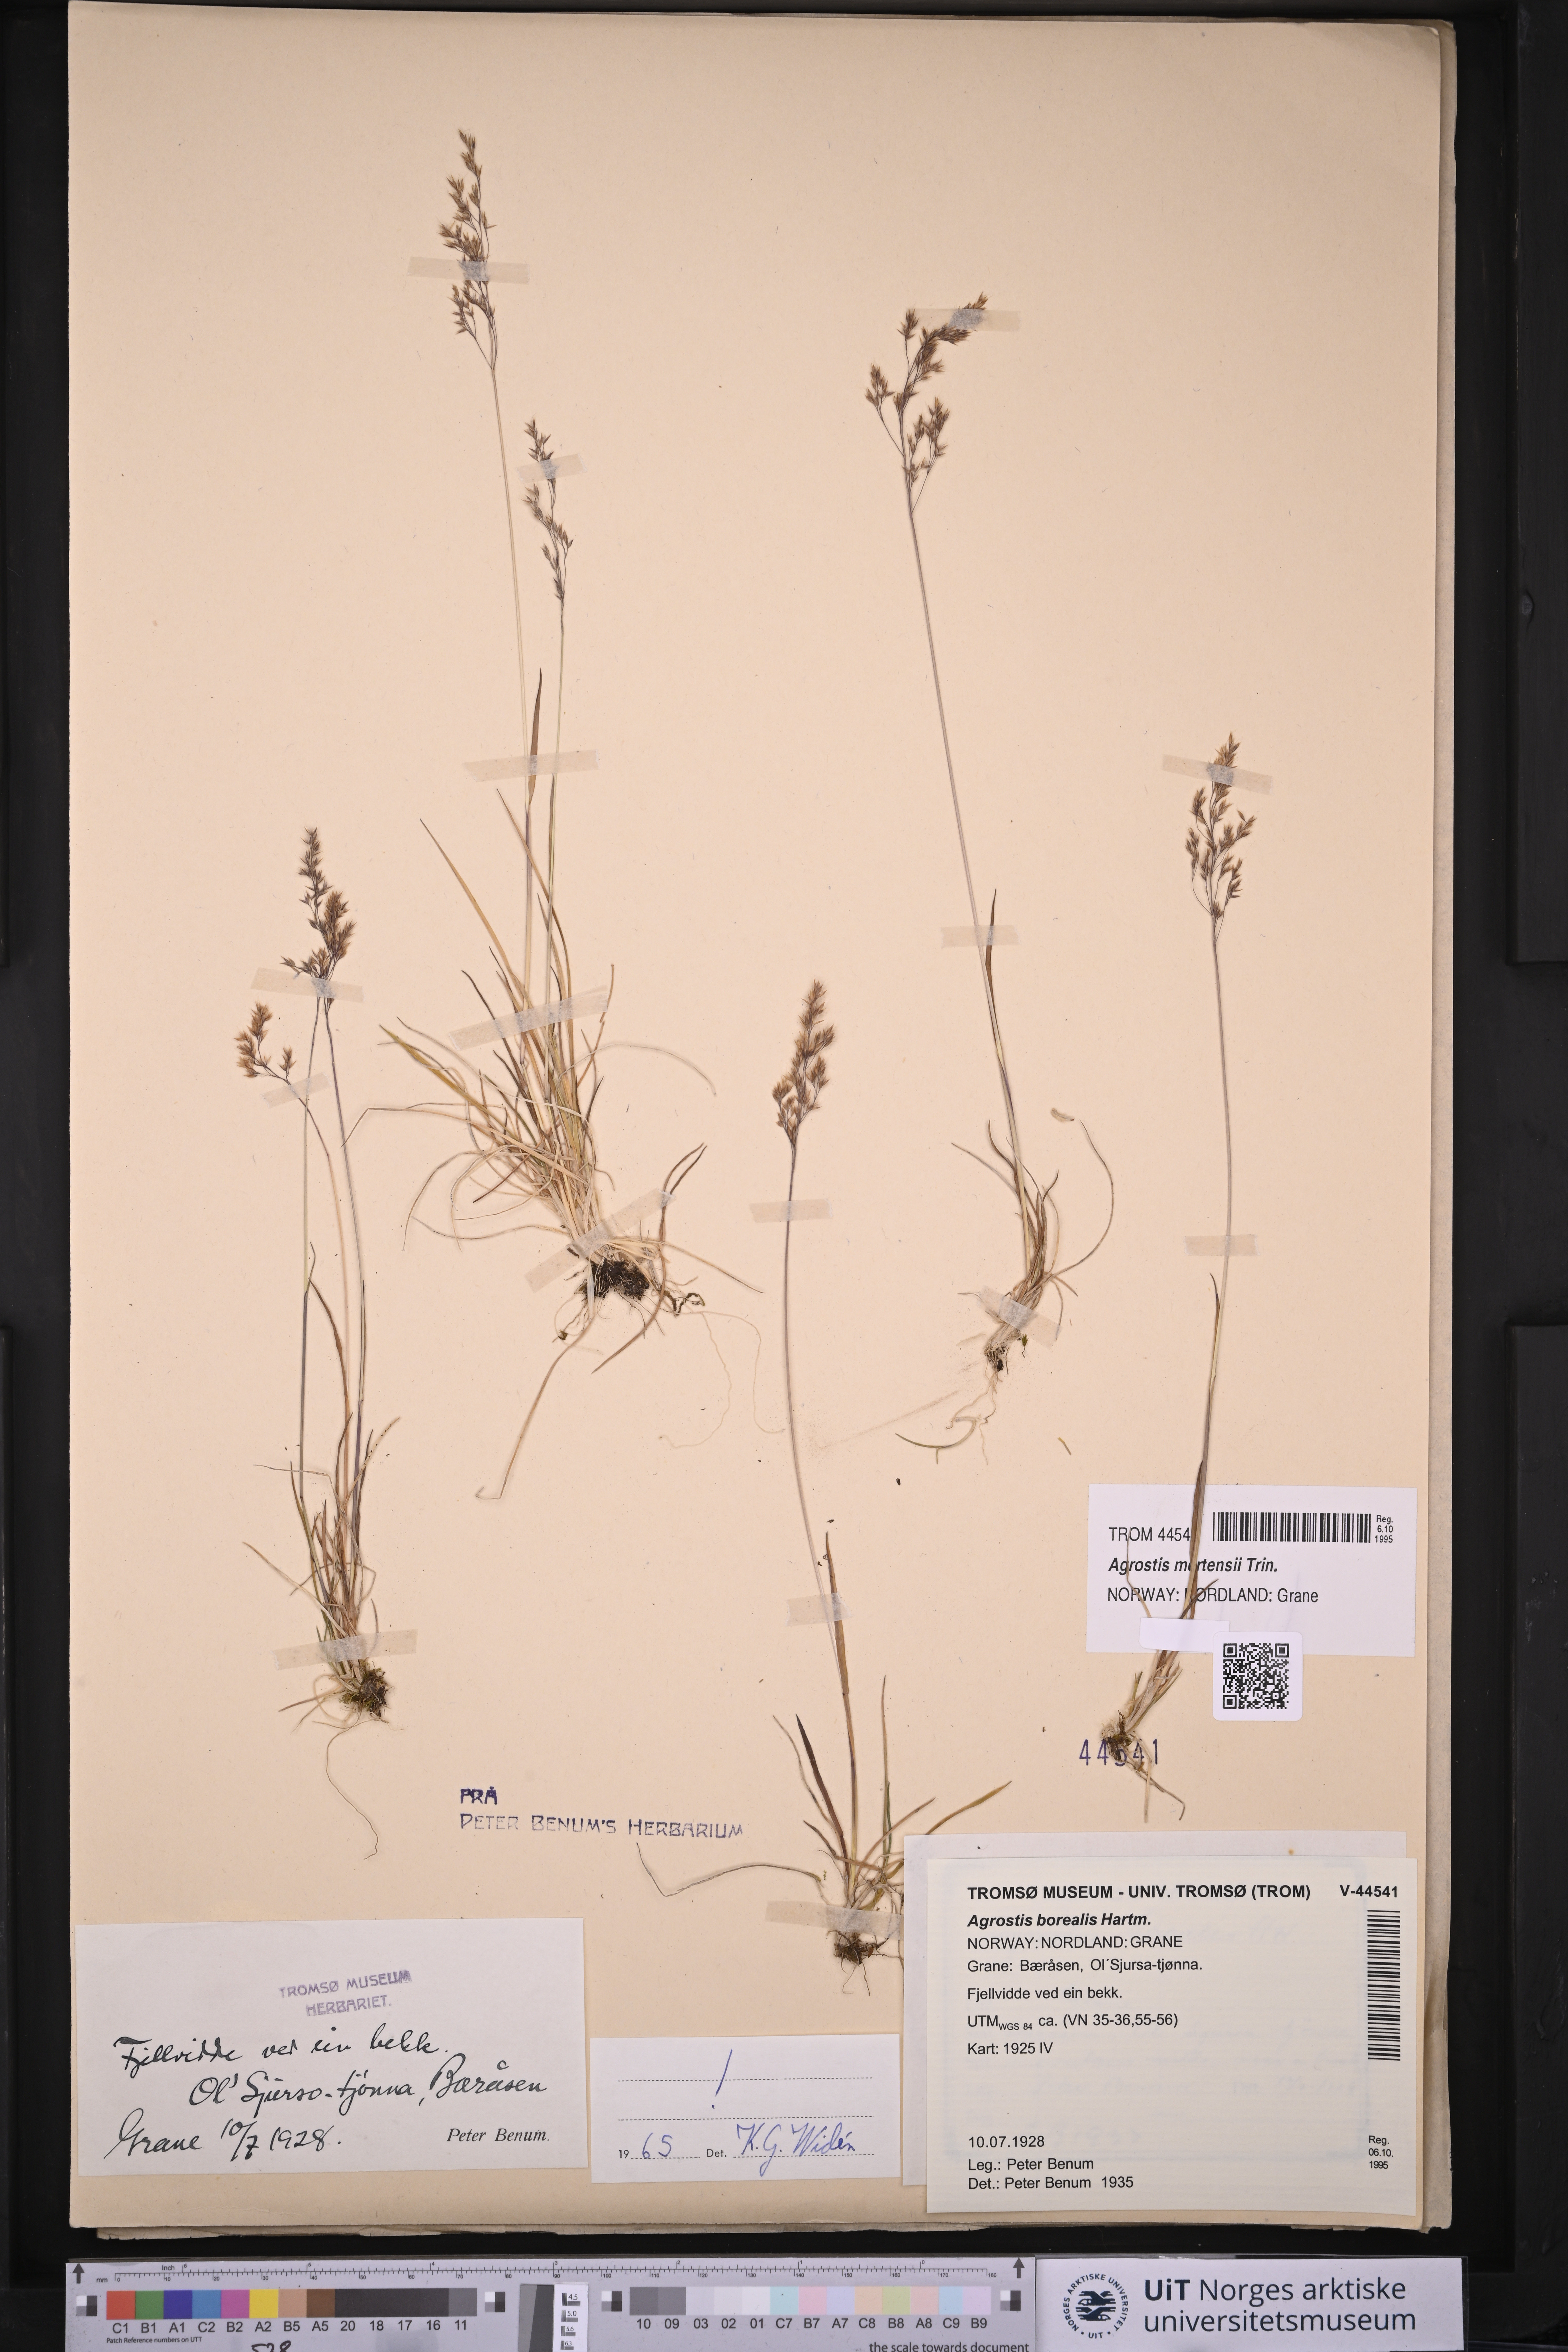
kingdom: Plantae
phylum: Tracheophyta
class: Liliopsida
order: Poales
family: Poaceae
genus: Agrostis
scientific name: Agrostis mertensii
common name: Northern bent
